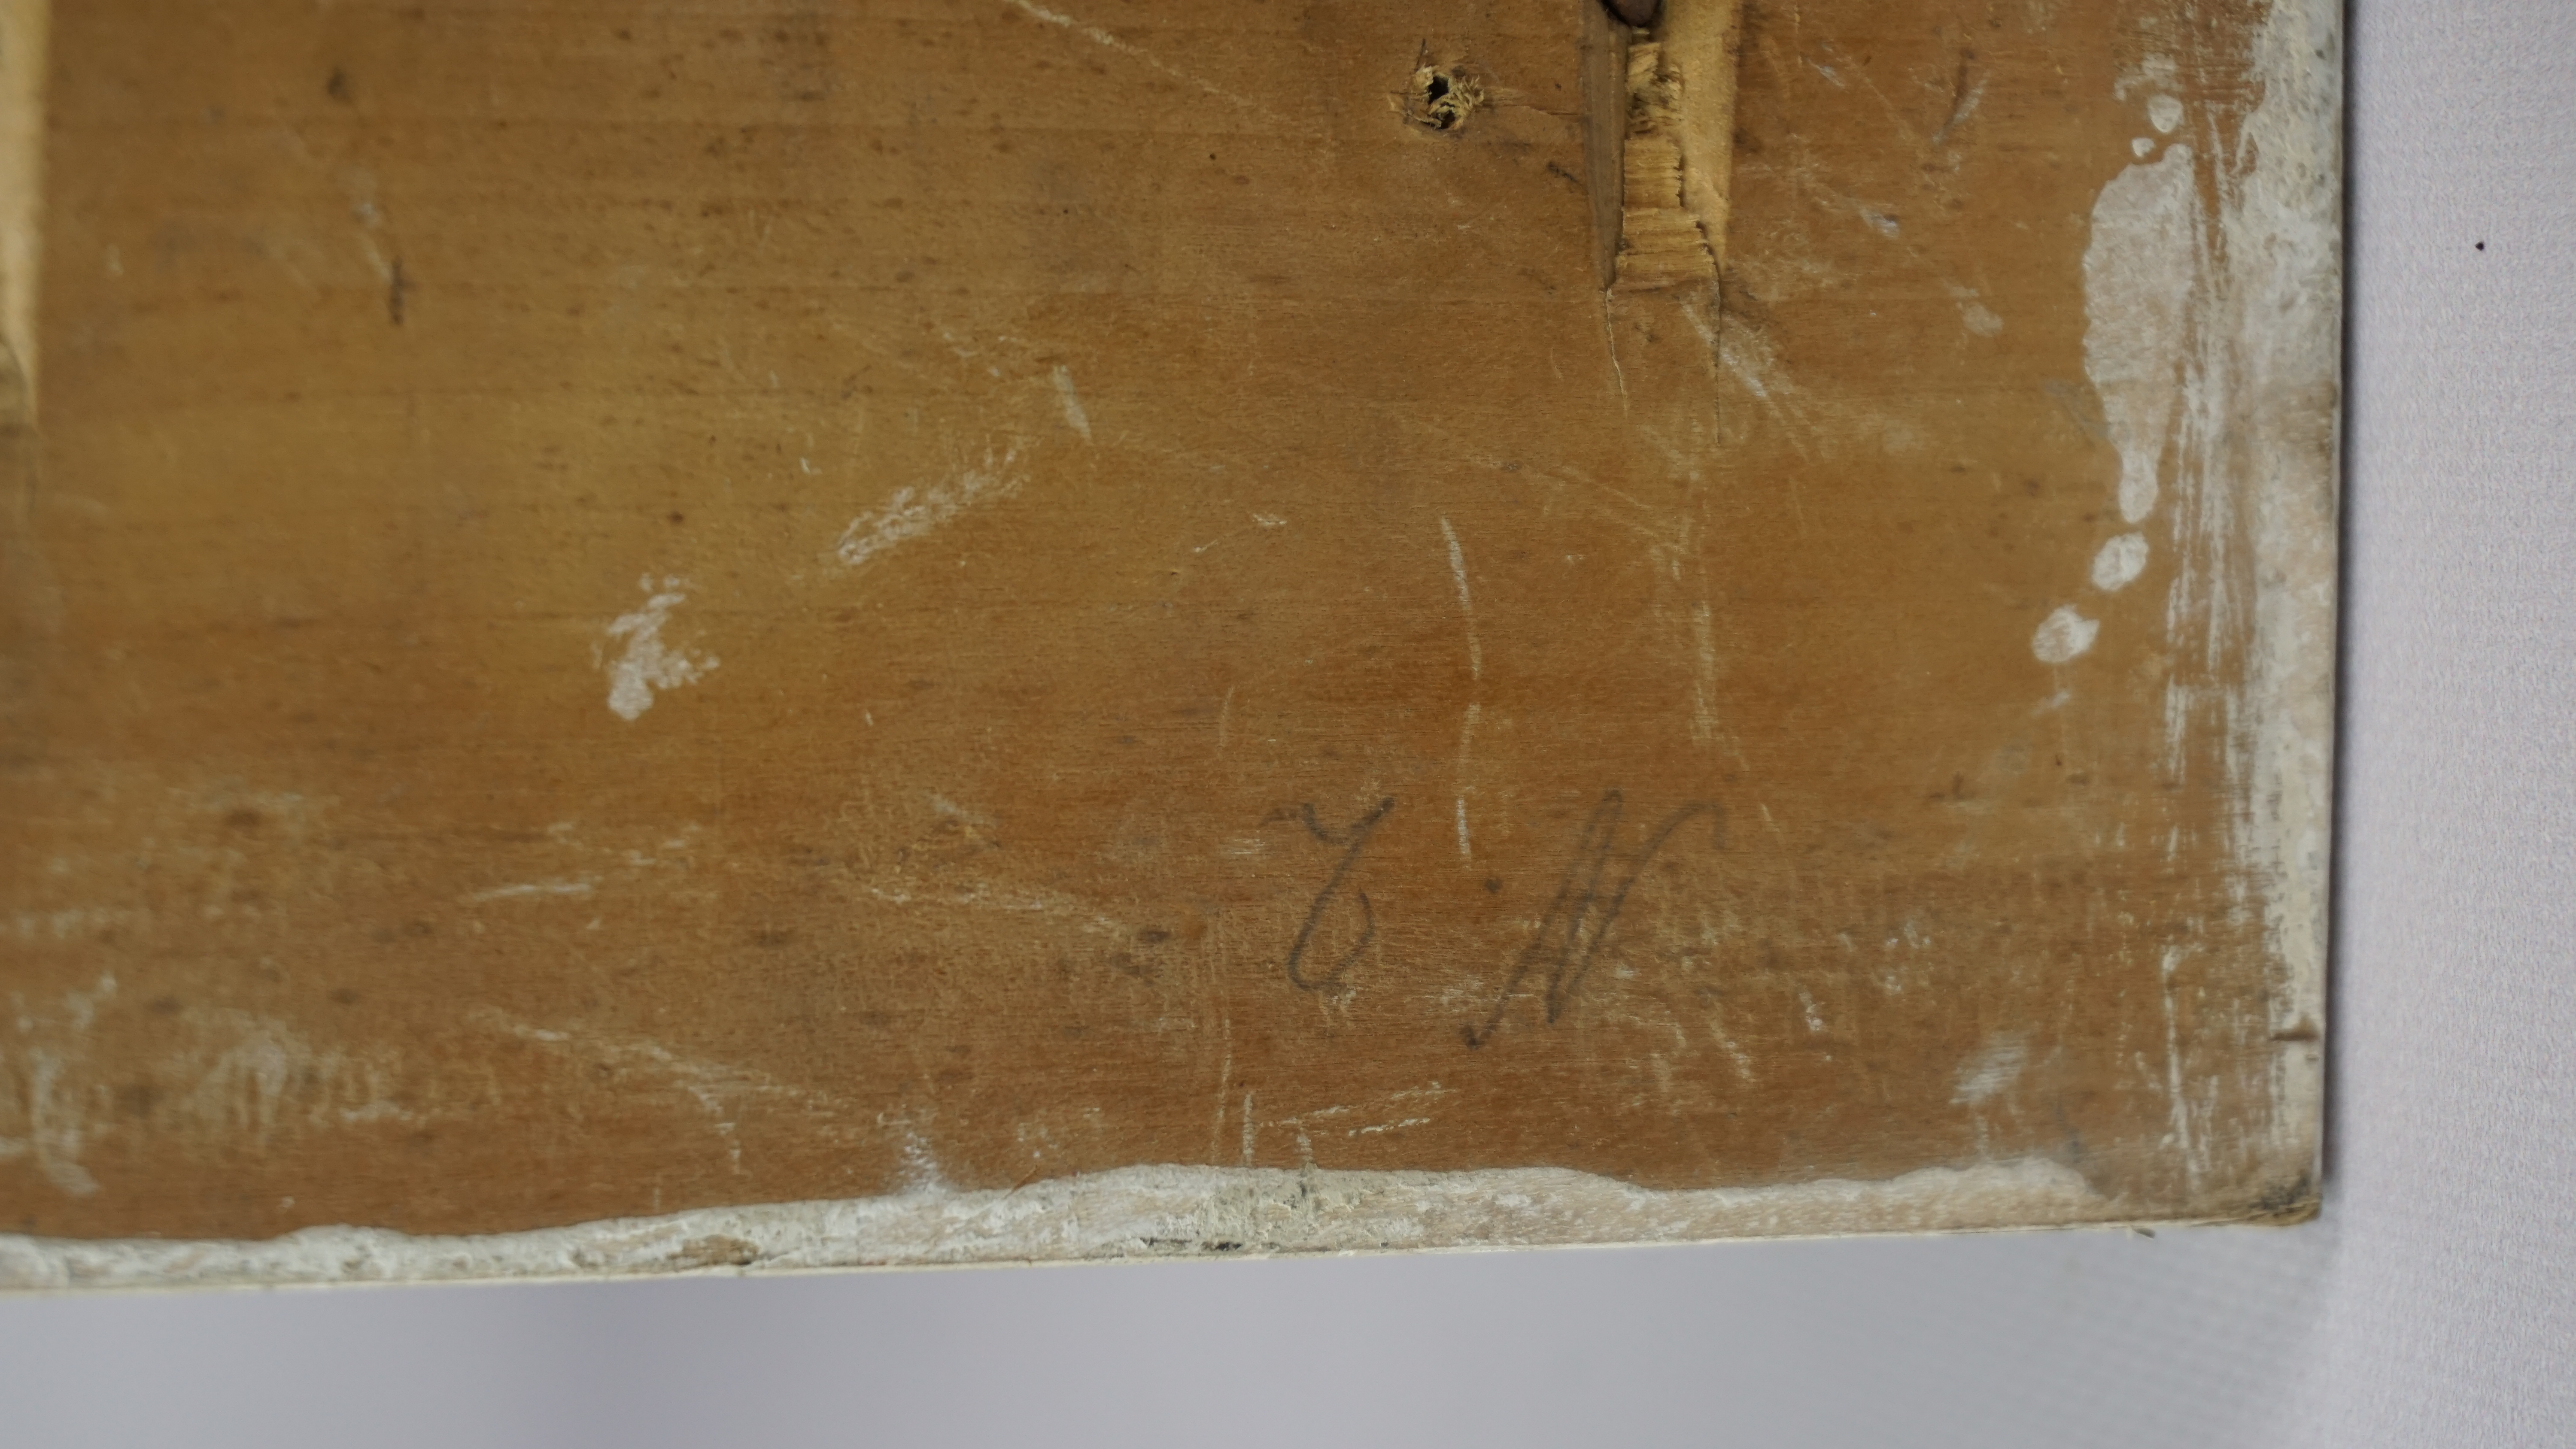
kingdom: Animalia
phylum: Chordata
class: Aves
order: Anseriformes
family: Anatidae
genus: Melanitta
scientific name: Melanitta deglandi
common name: White-winged scoter
